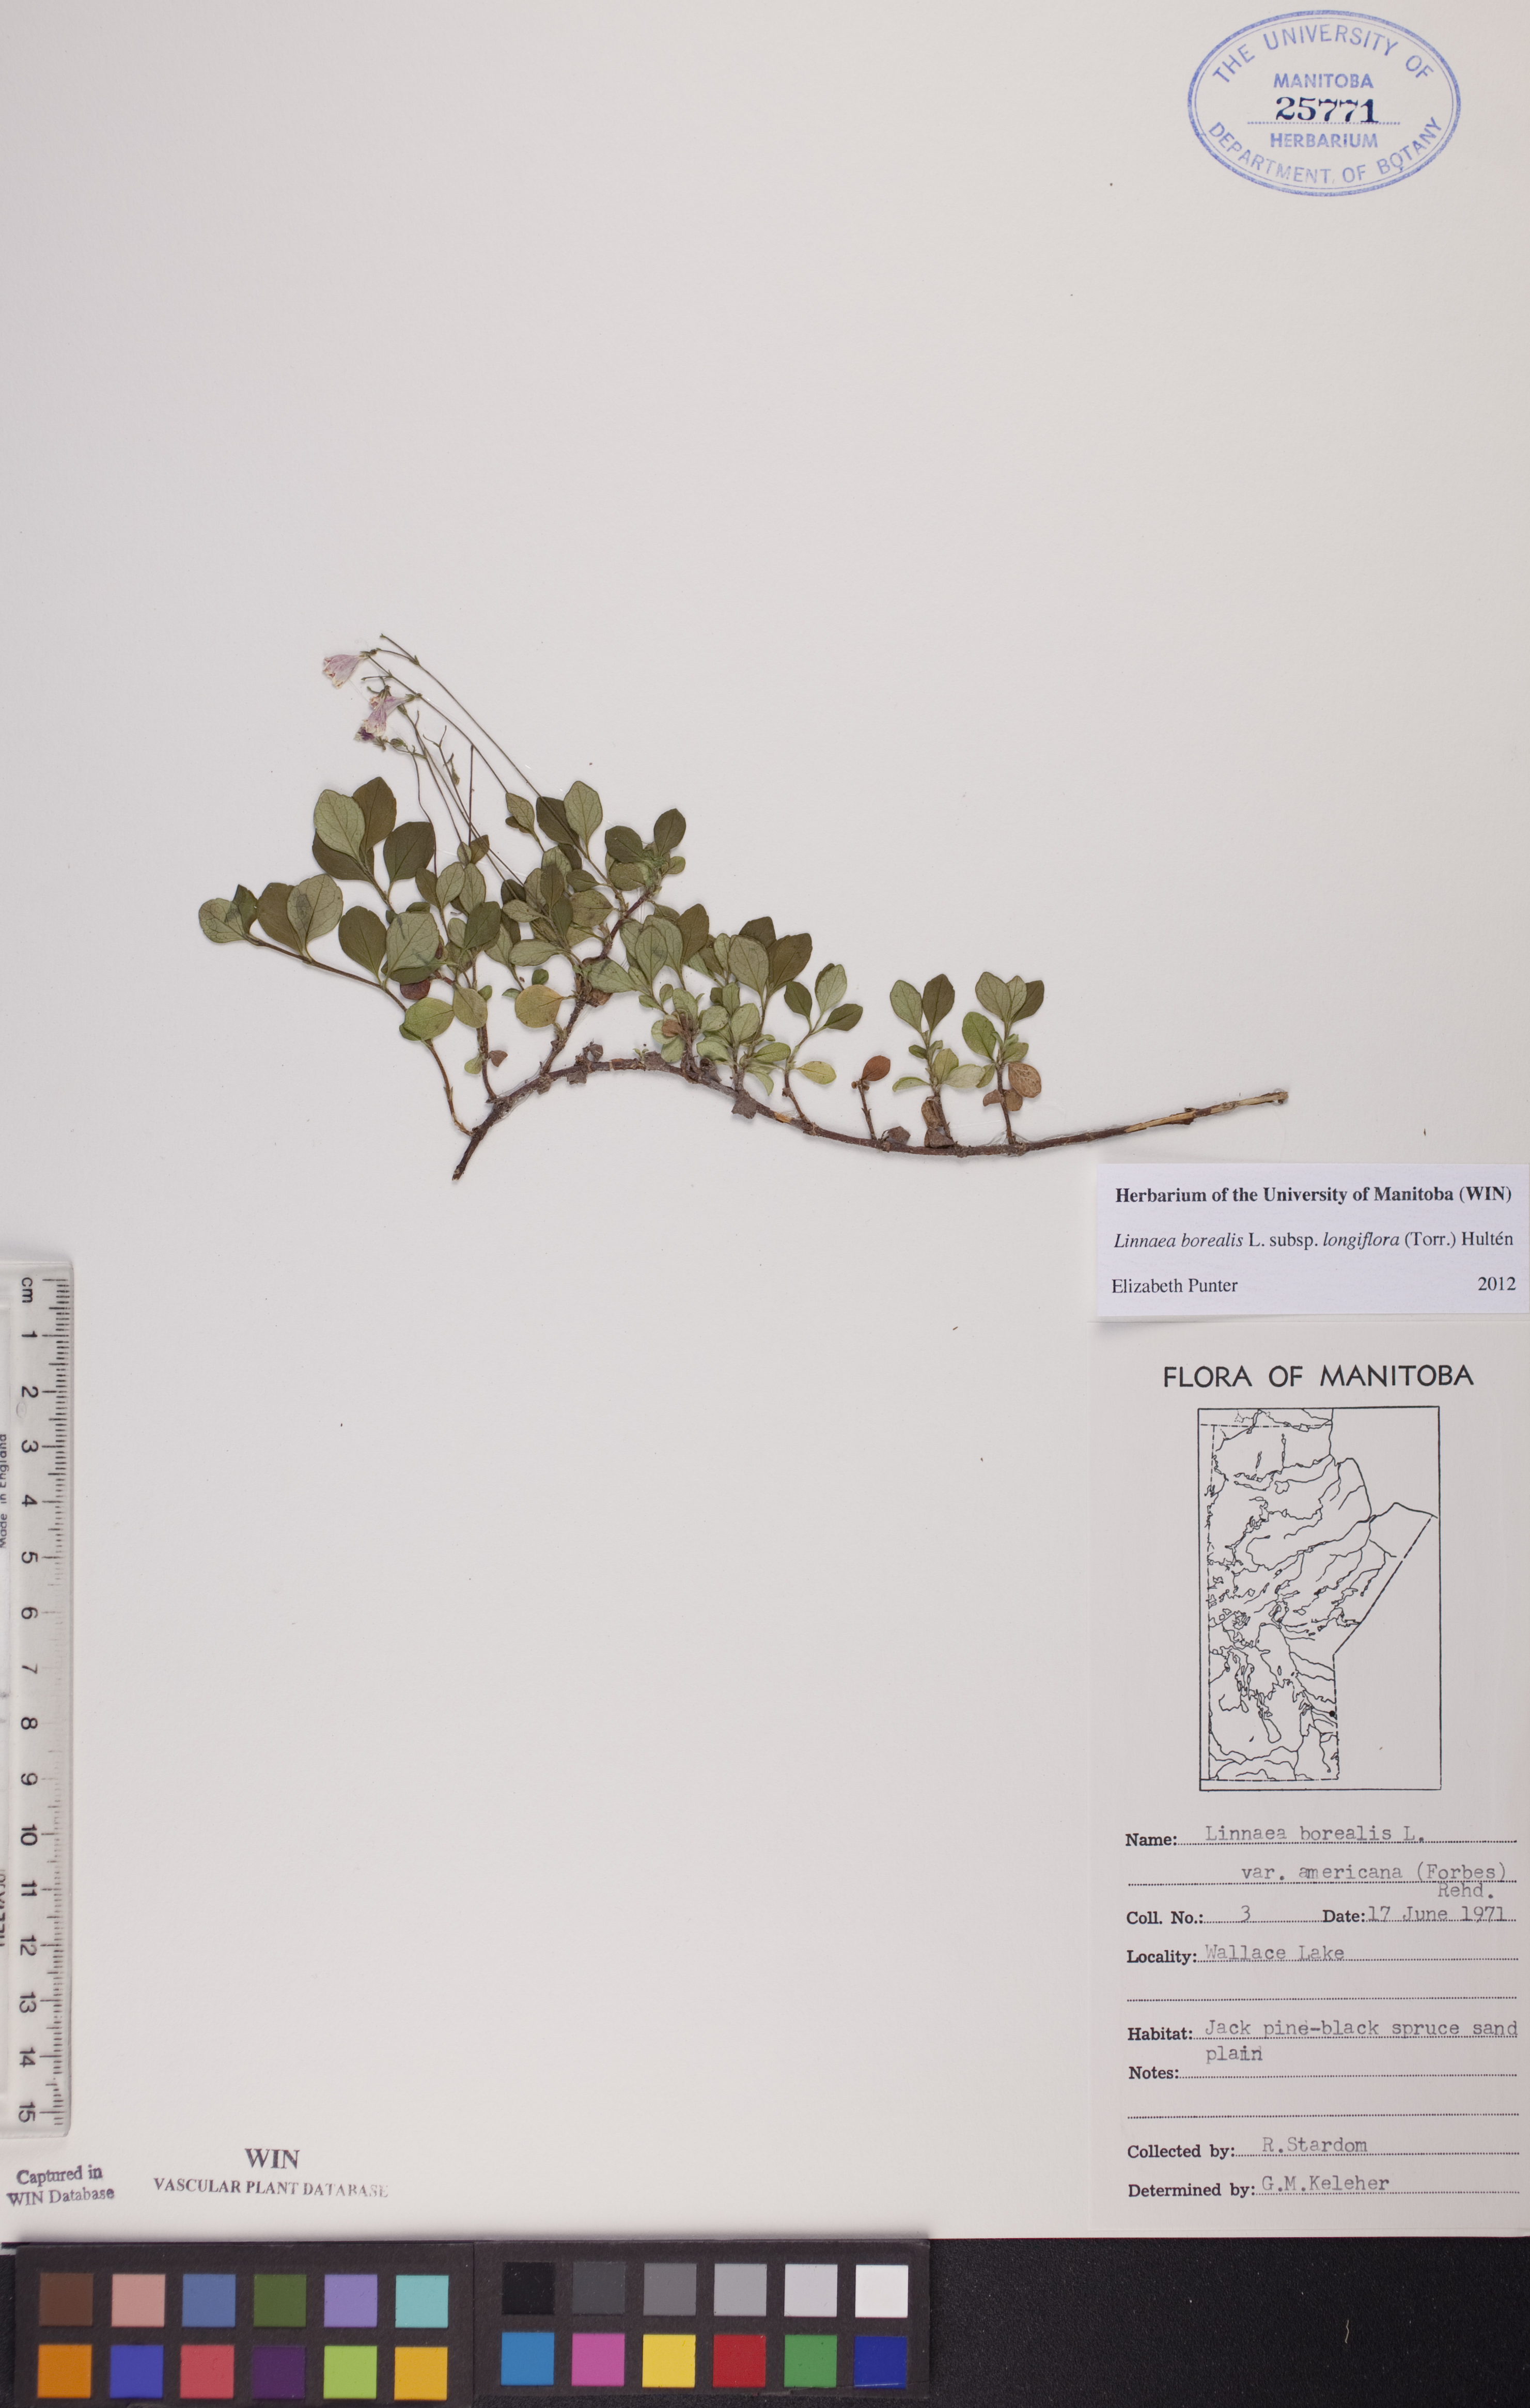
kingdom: Plantae
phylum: Tracheophyta
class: Magnoliopsida
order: Dipsacales
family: Caprifoliaceae
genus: Linnaea
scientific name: Linnaea borealis
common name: Twinflower
